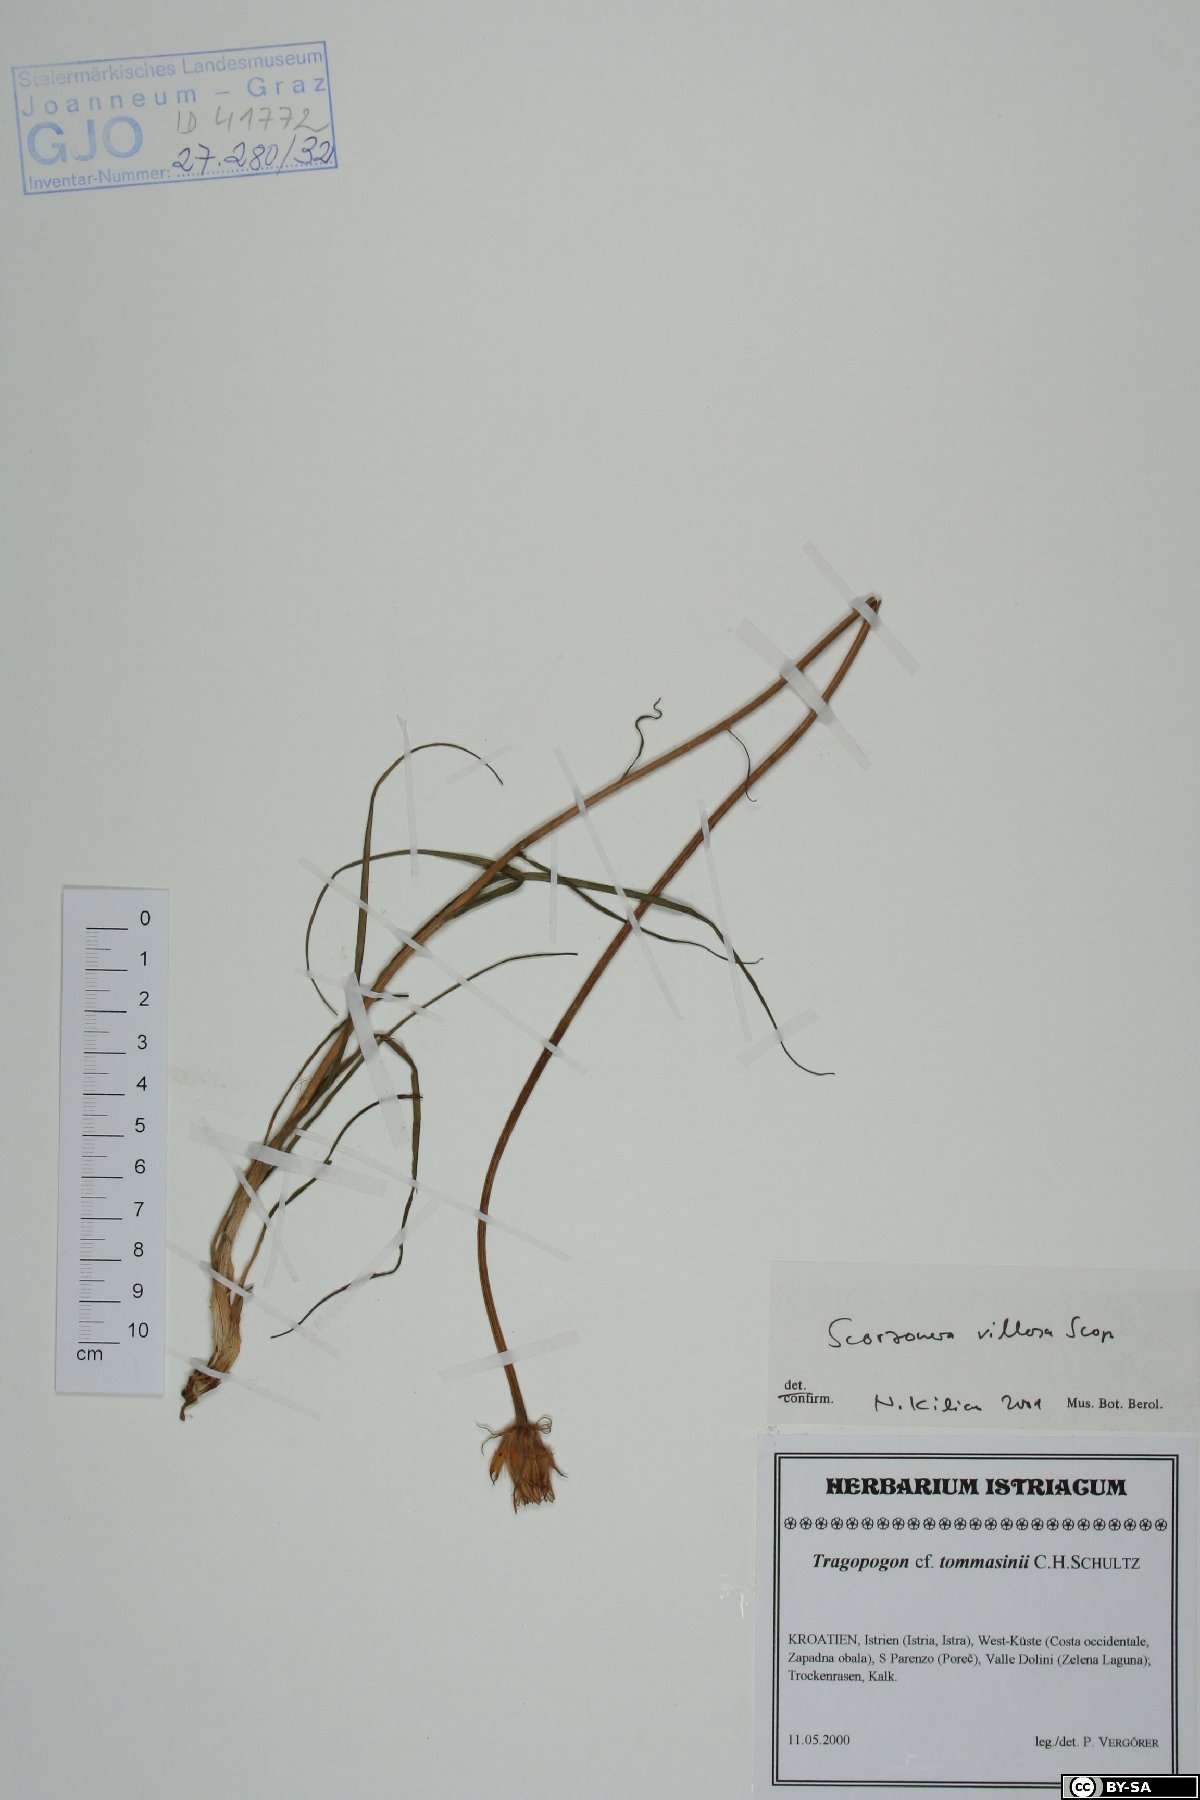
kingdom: Plantae
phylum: Tracheophyta
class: Magnoliopsida
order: Asterales
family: Asteraceae
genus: Gelasia
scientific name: Gelasia villosa
